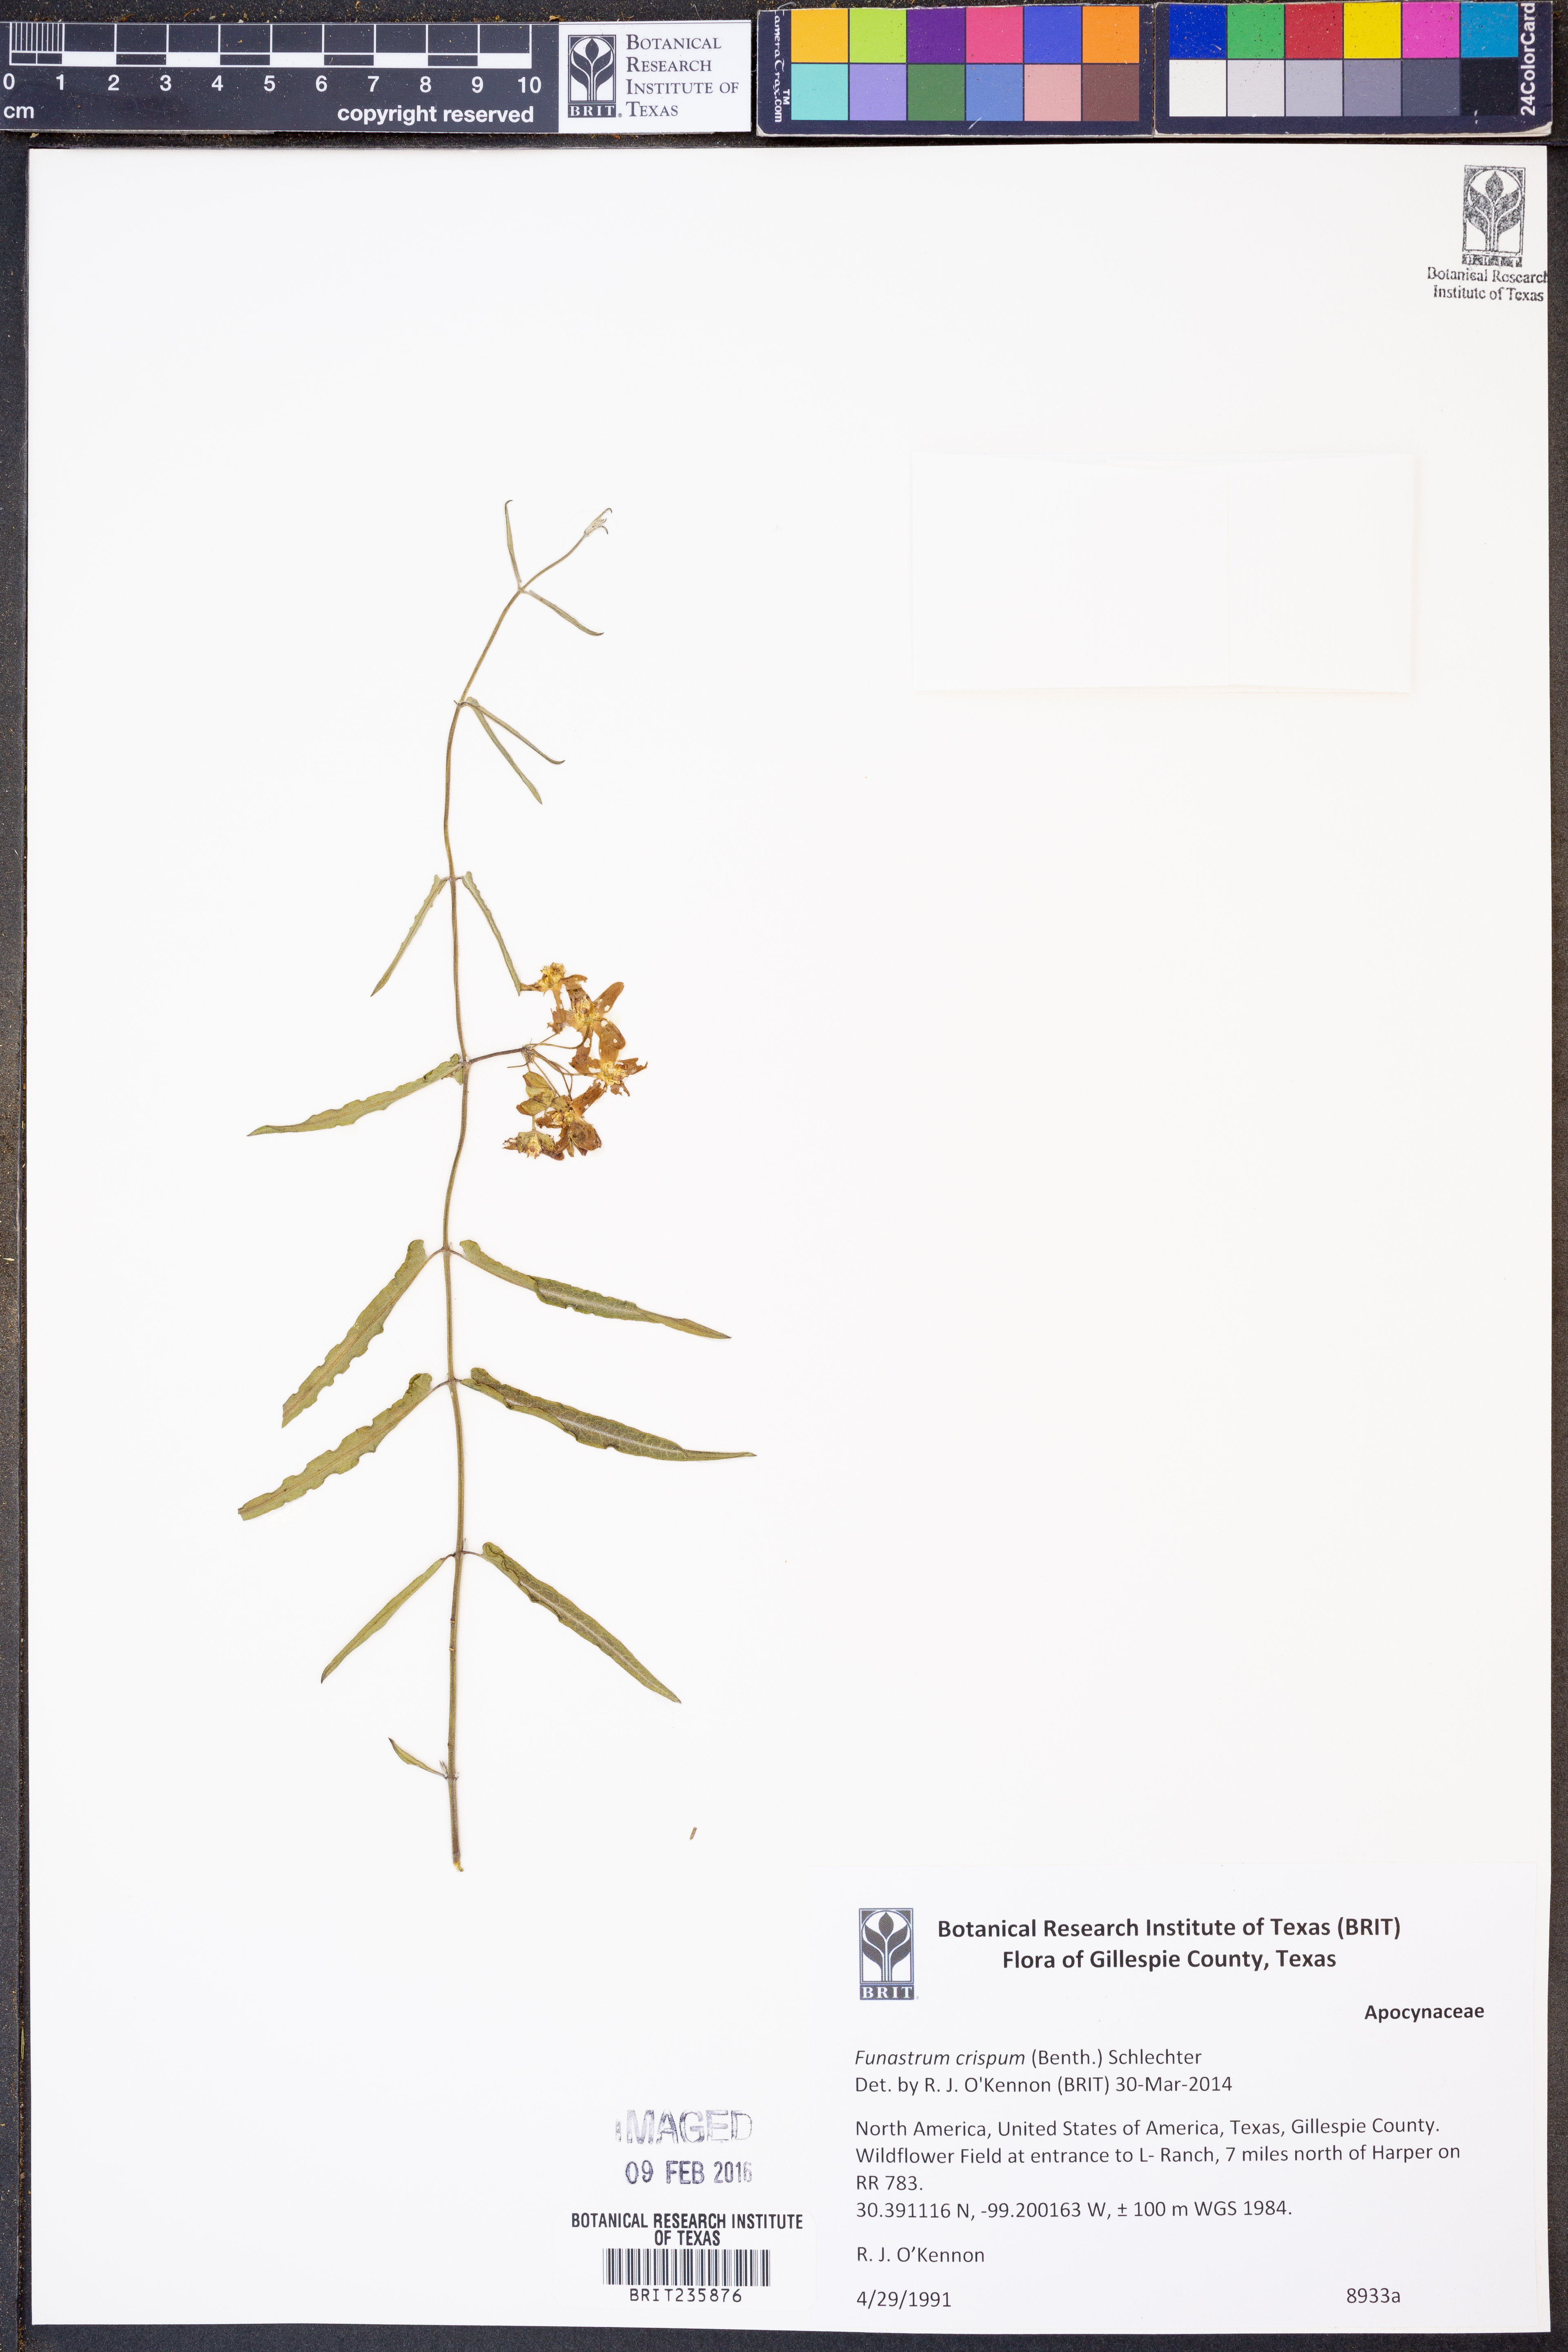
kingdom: Plantae
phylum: Tracheophyta
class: Magnoliopsida
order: Gentianales
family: Apocynaceae
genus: Funastrum
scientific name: Funastrum cynanchoides
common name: Climbing-milkweed
